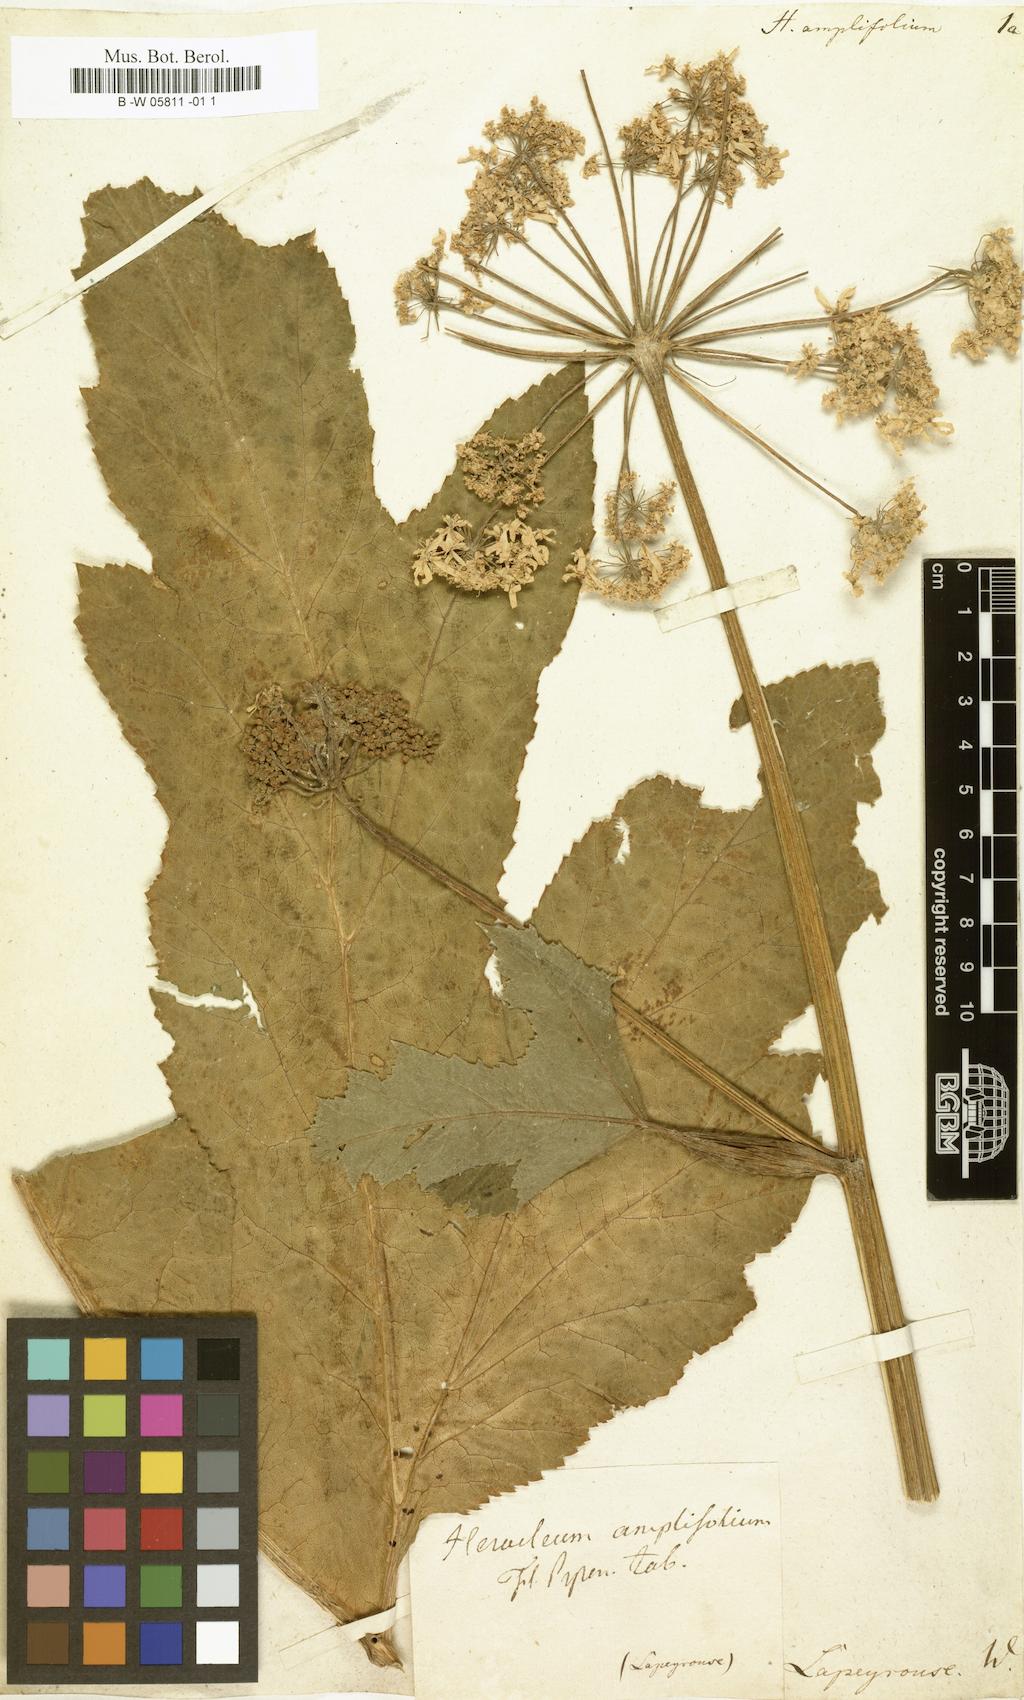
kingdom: Plantae
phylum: Tracheophyta
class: Magnoliopsida
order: Apiales
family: Apiaceae
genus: Heracleum
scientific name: Heracleum sphondylium
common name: Hogweed
